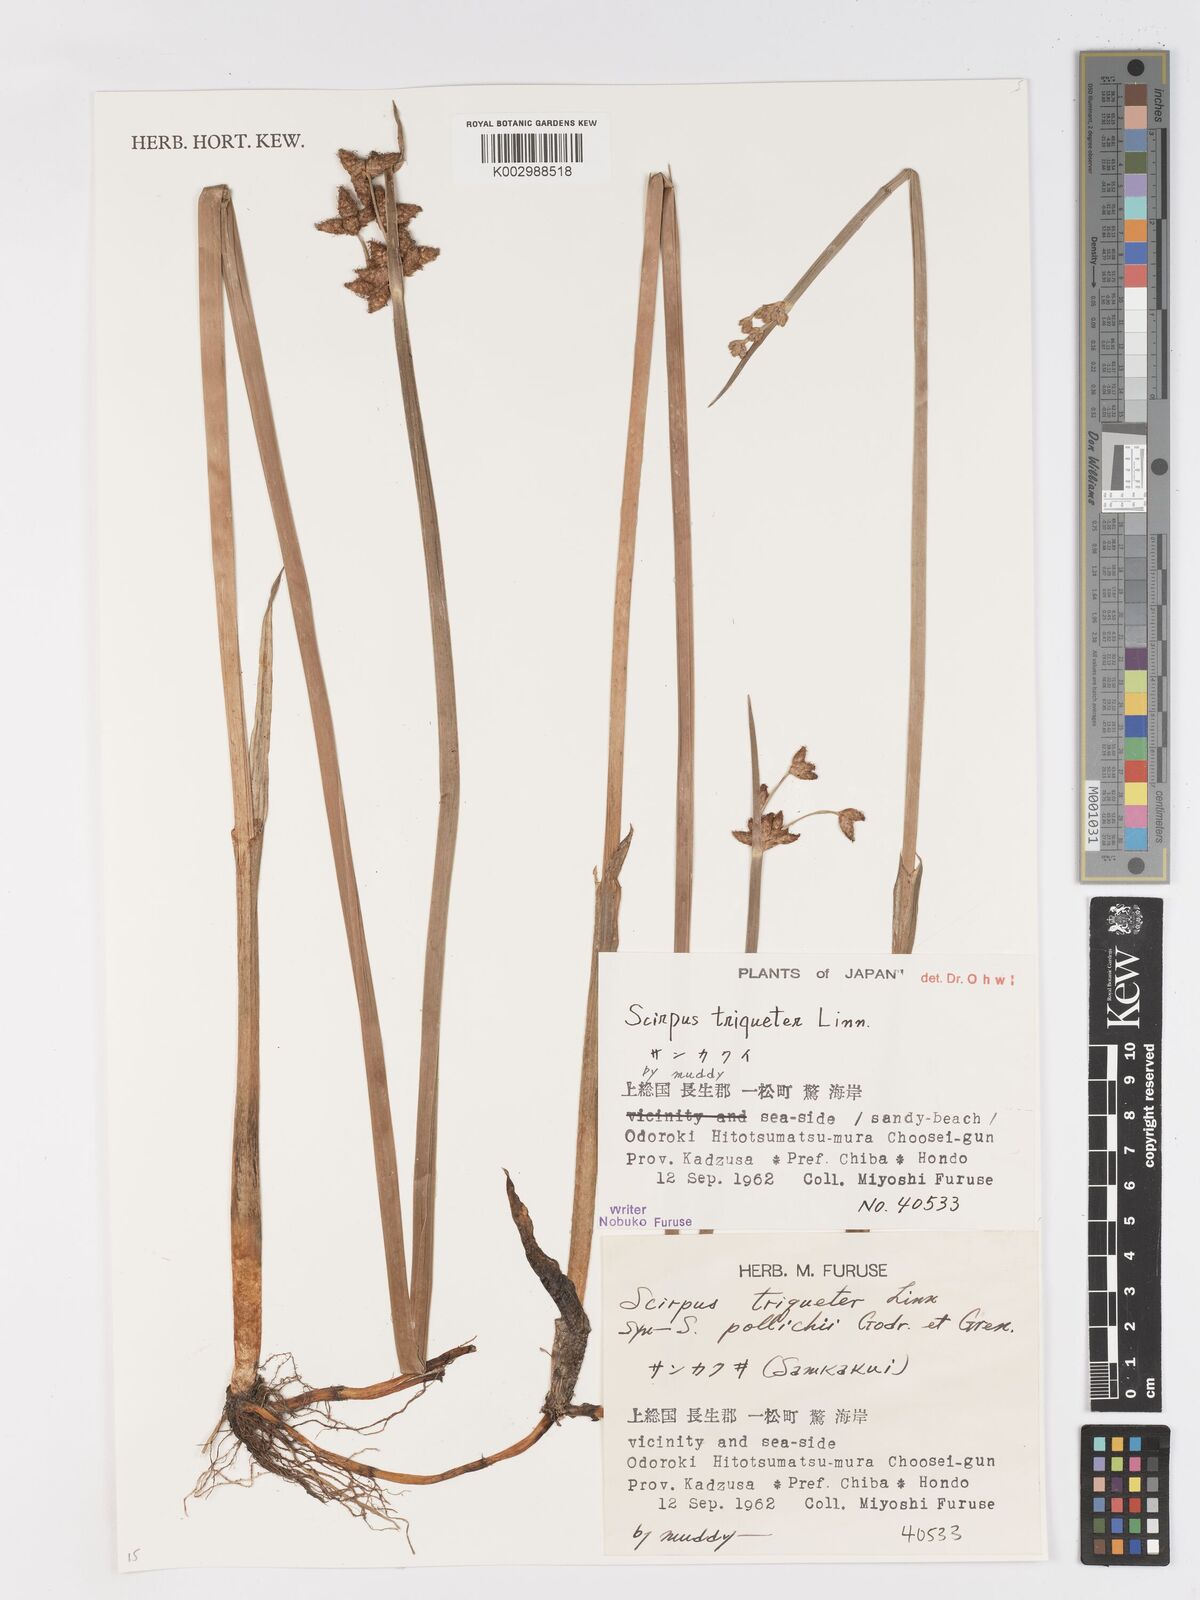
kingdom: Plantae
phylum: Tracheophyta
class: Liliopsida
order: Poales
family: Cyperaceae
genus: Schoenoplectus
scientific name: Schoenoplectus triqueter
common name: Triangular club-rush
